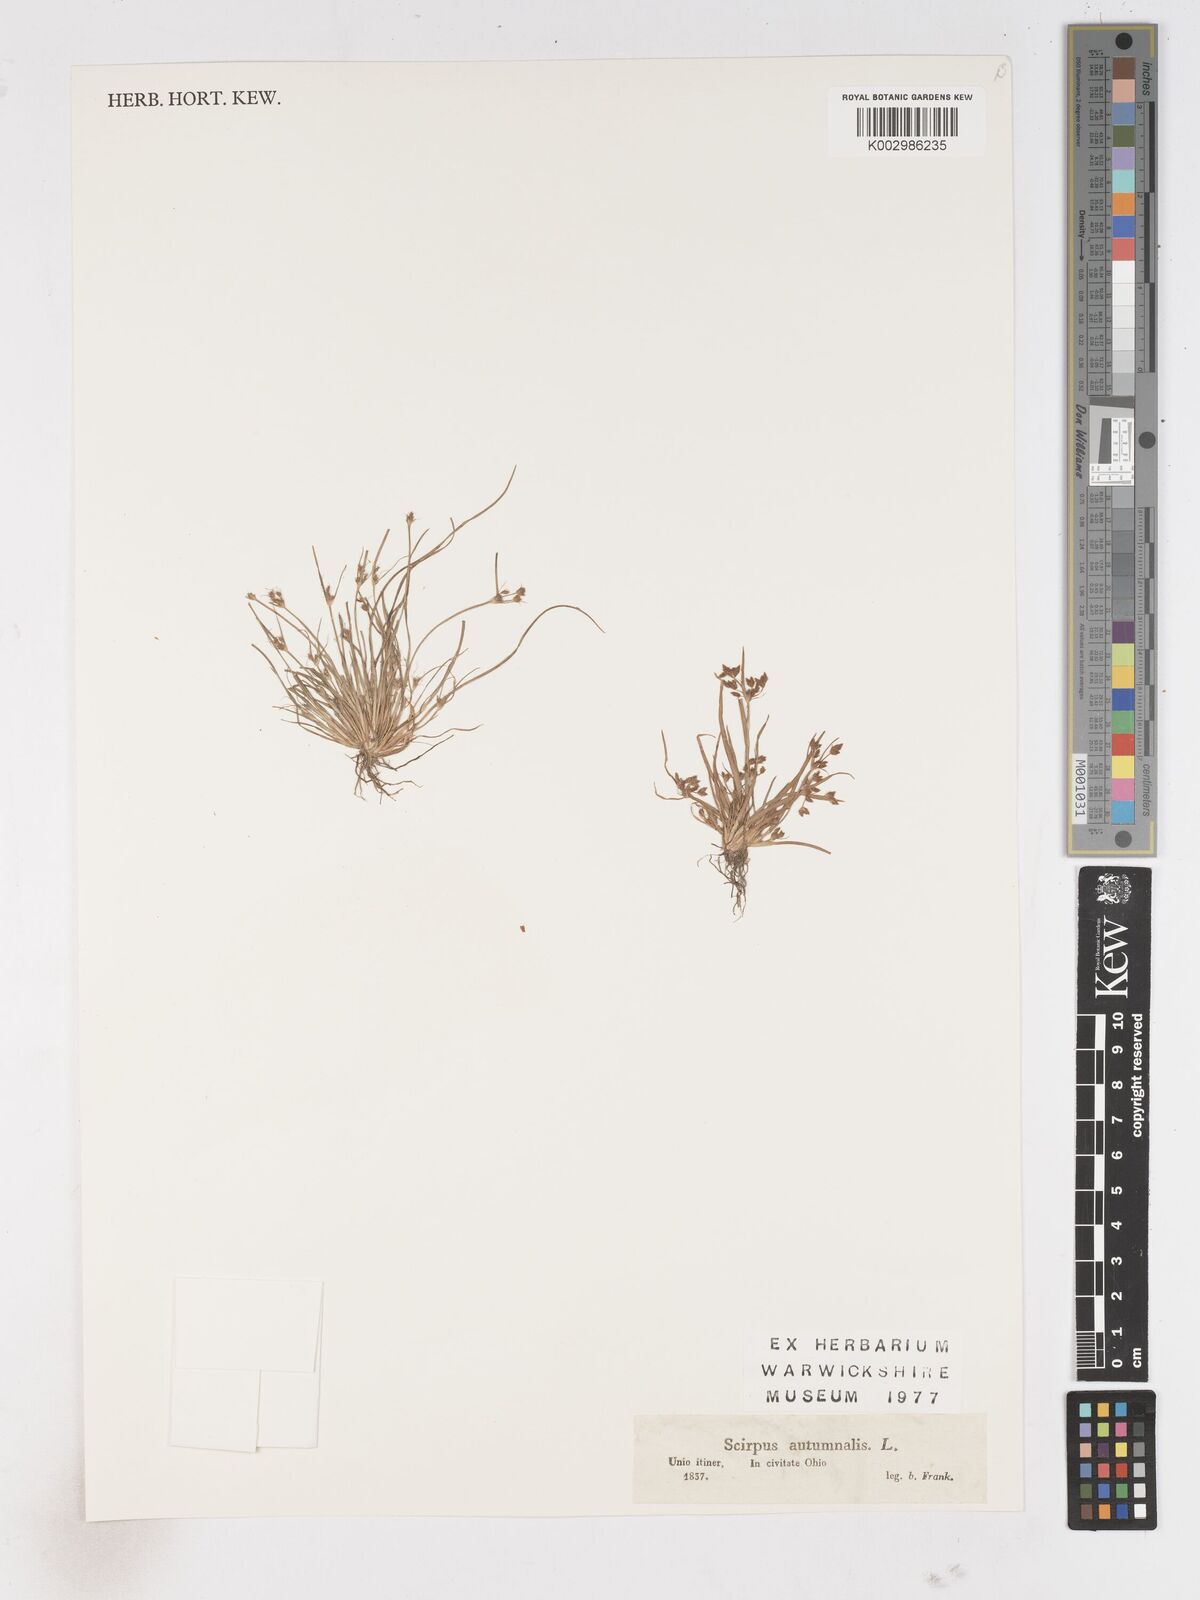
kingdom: Plantae
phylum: Tracheophyta
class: Liliopsida
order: Poales
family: Cyperaceae
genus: Fimbristylis
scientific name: Fimbristylis autumnalis
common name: Slender fimbristylis
